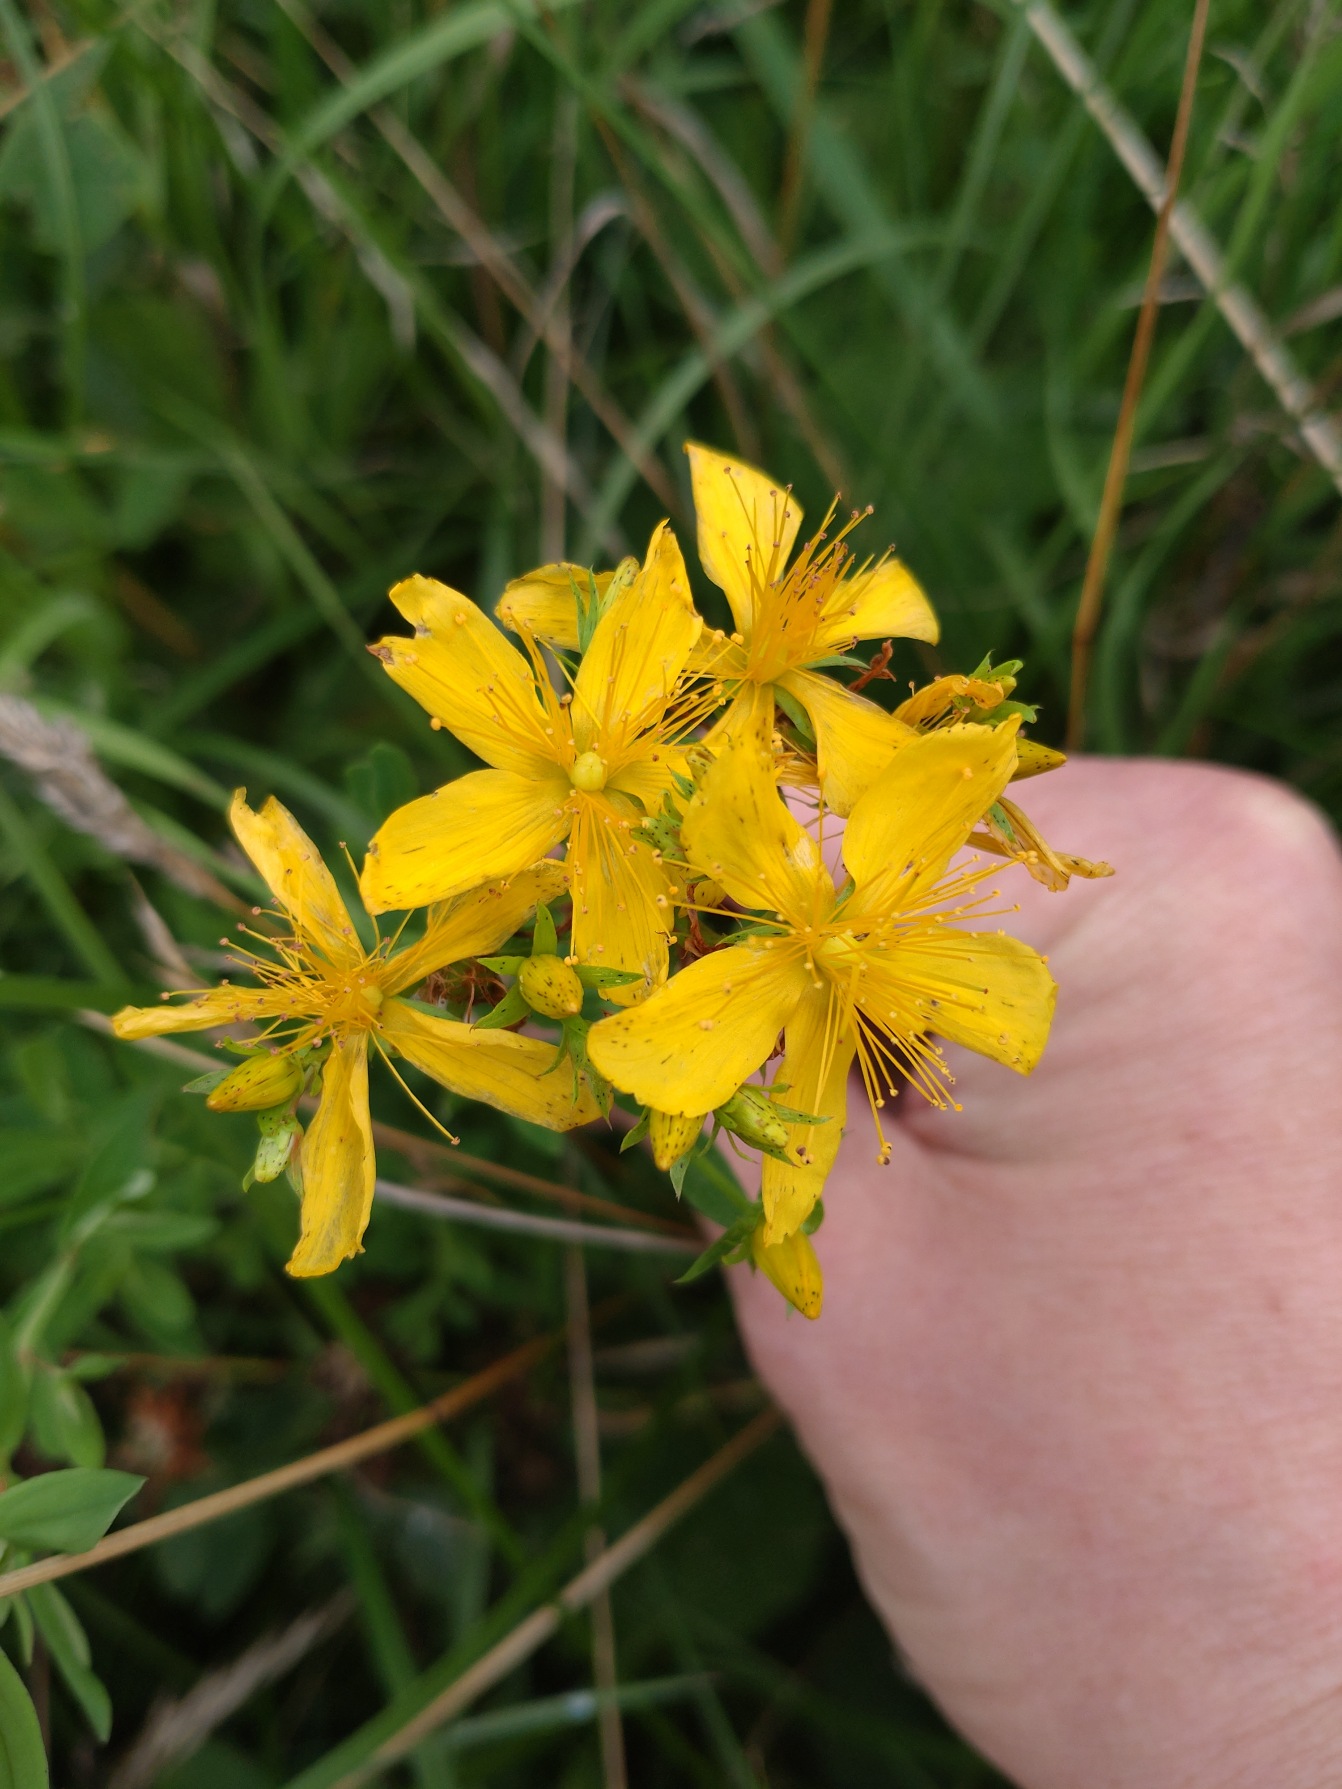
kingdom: Plantae
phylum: Tracheophyta
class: Magnoliopsida
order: Malpighiales
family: Hypericaceae
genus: Hypericum
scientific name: Hypericum perforatum
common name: Prikbladet perikon
